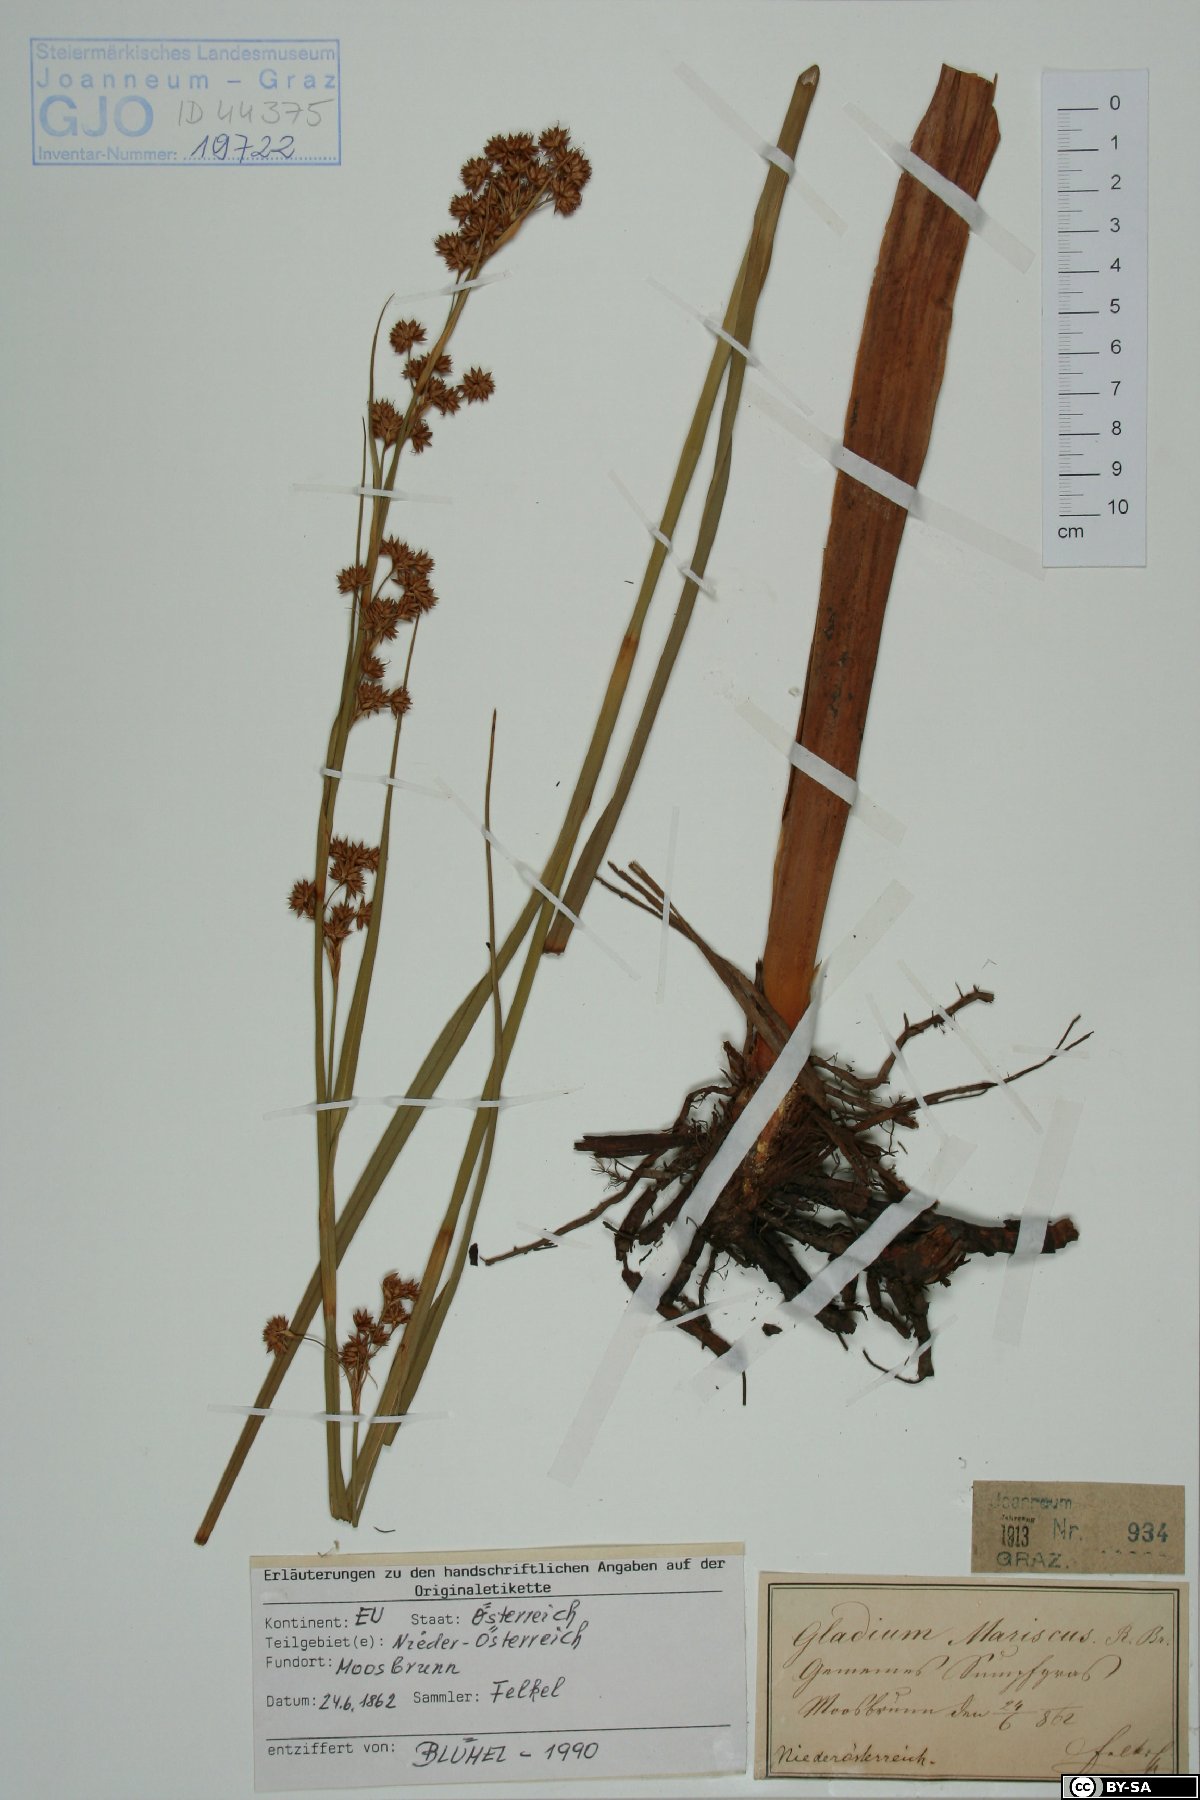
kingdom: Plantae
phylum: Tracheophyta
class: Liliopsida
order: Poales
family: Cyperaceae
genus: Cladium
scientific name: Cladium mariscus
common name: Great fen-sedge
